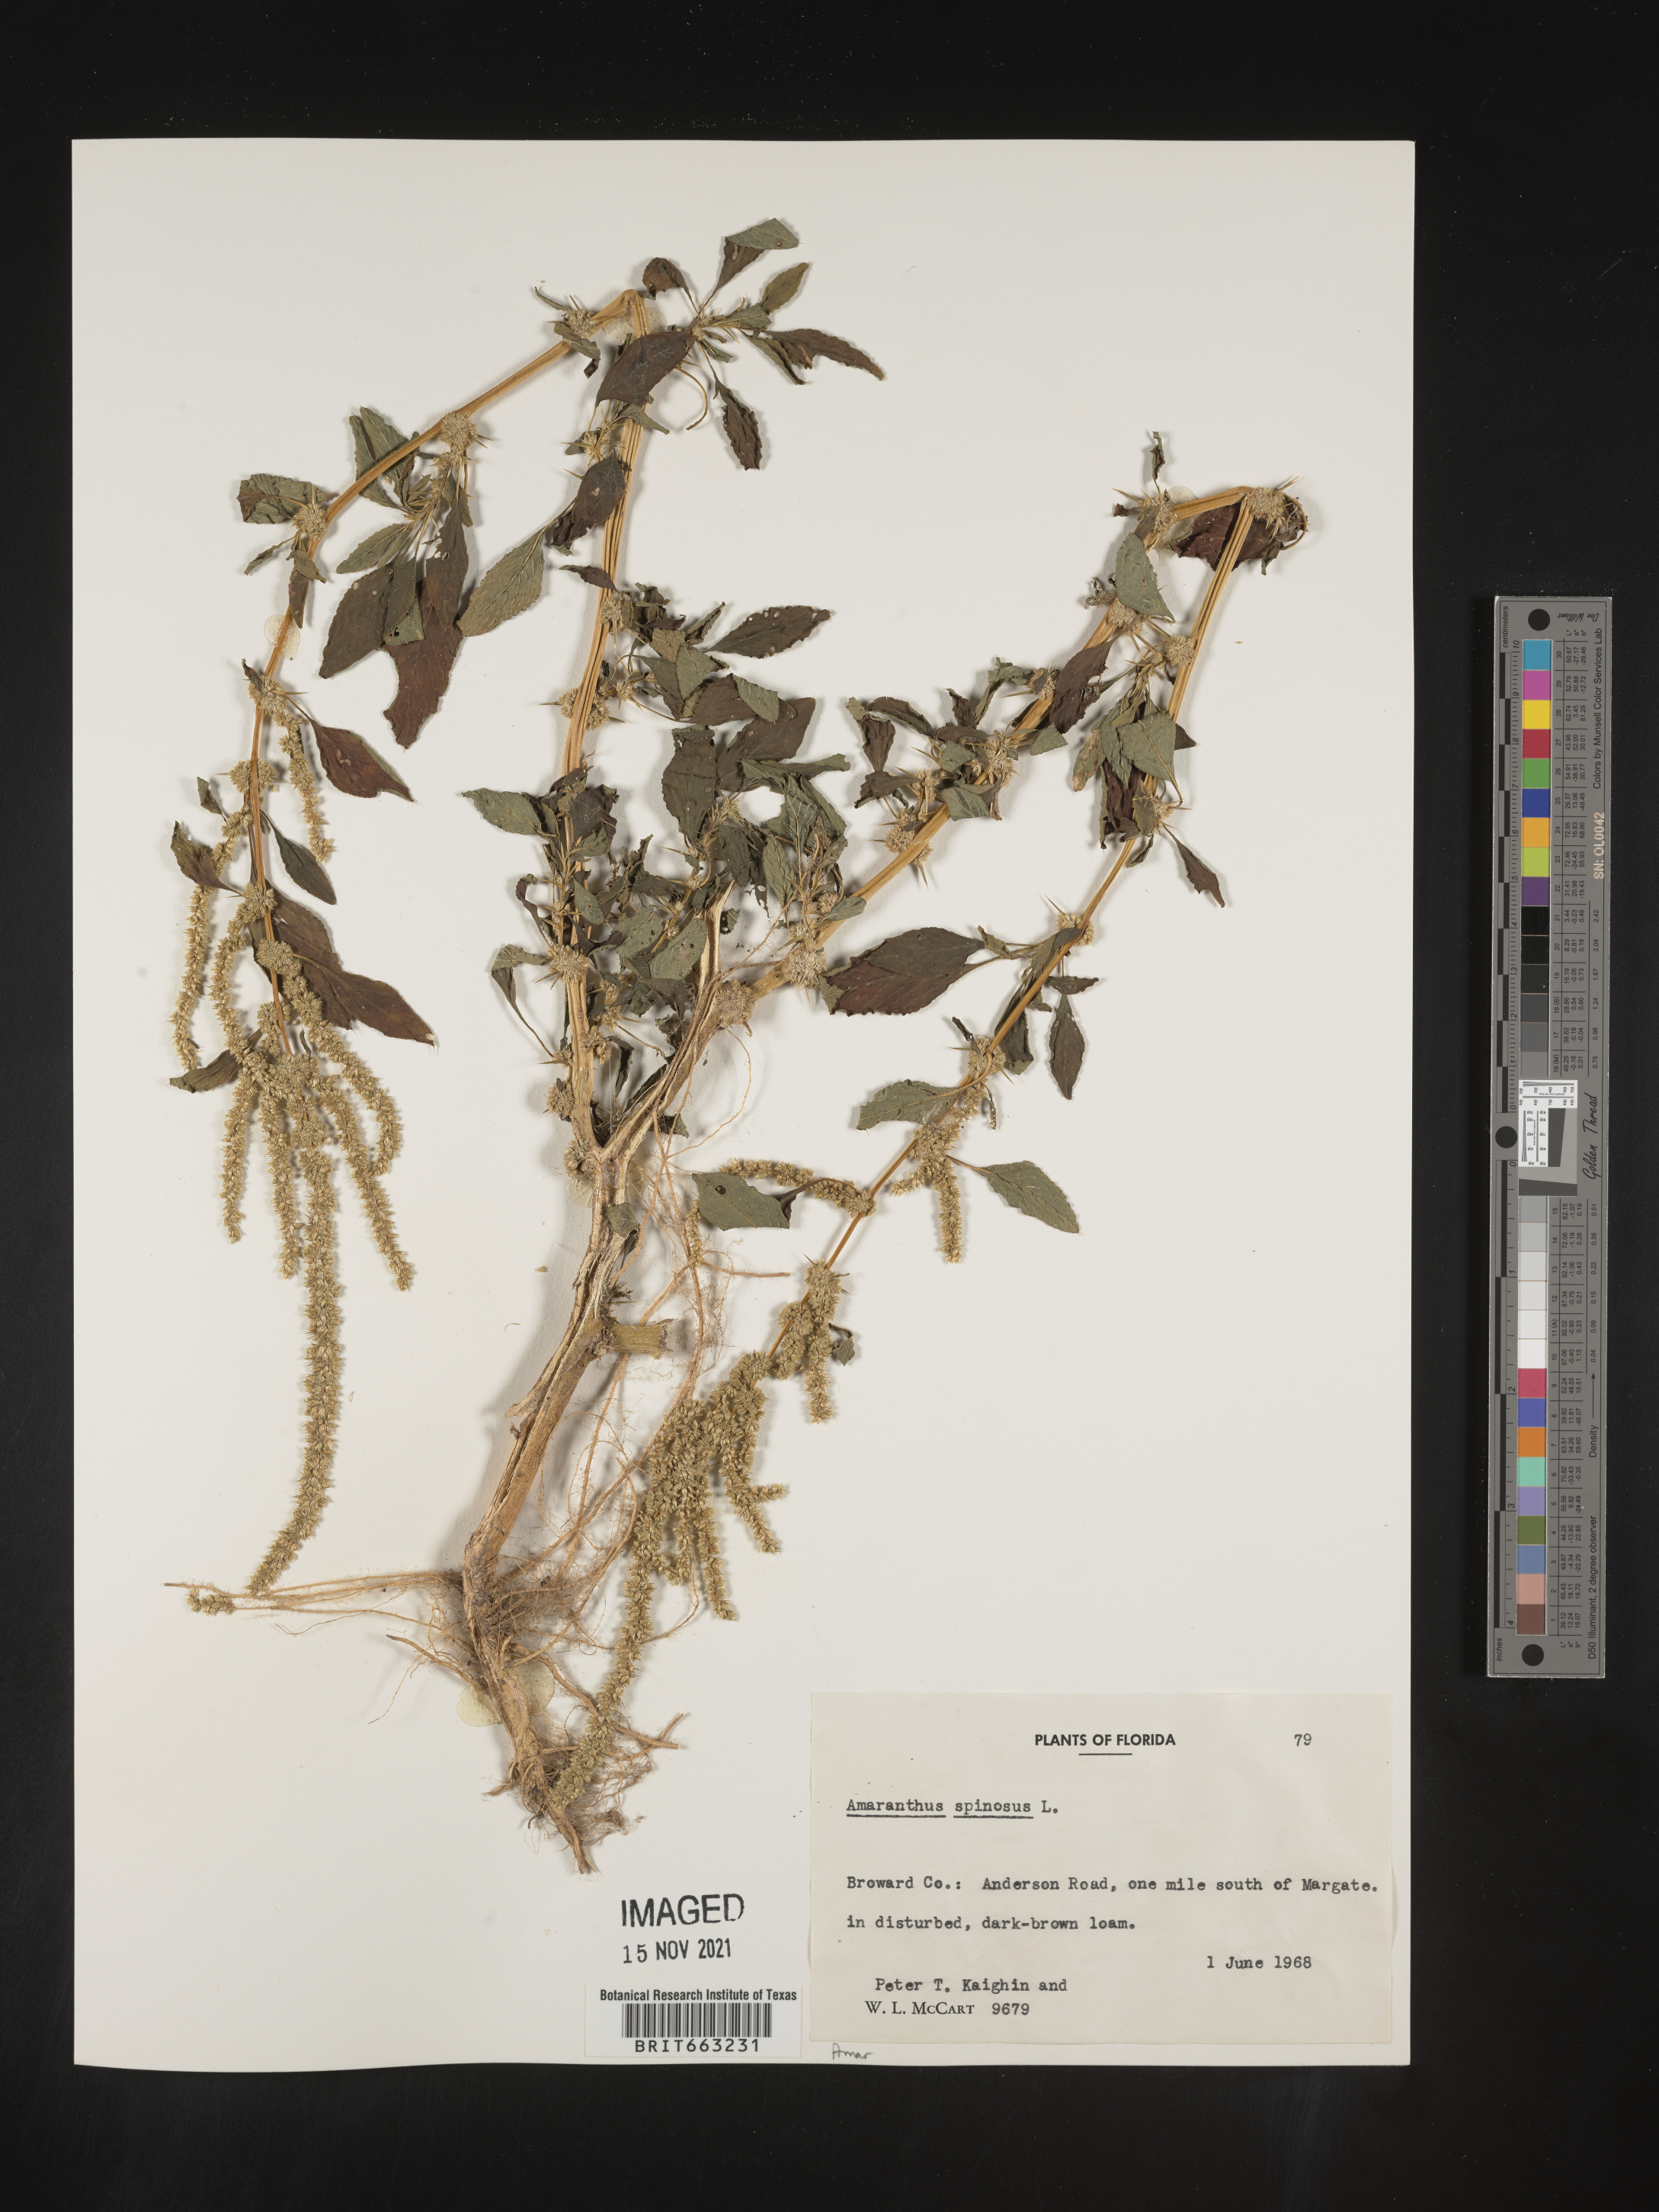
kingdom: Plantae
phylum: Tracheophyta
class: Magnoliopsida
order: Caryophyllales
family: Amaranthaceae
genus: Amaranthus
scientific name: Amaranthus spinosus
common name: Spiny amaranth
